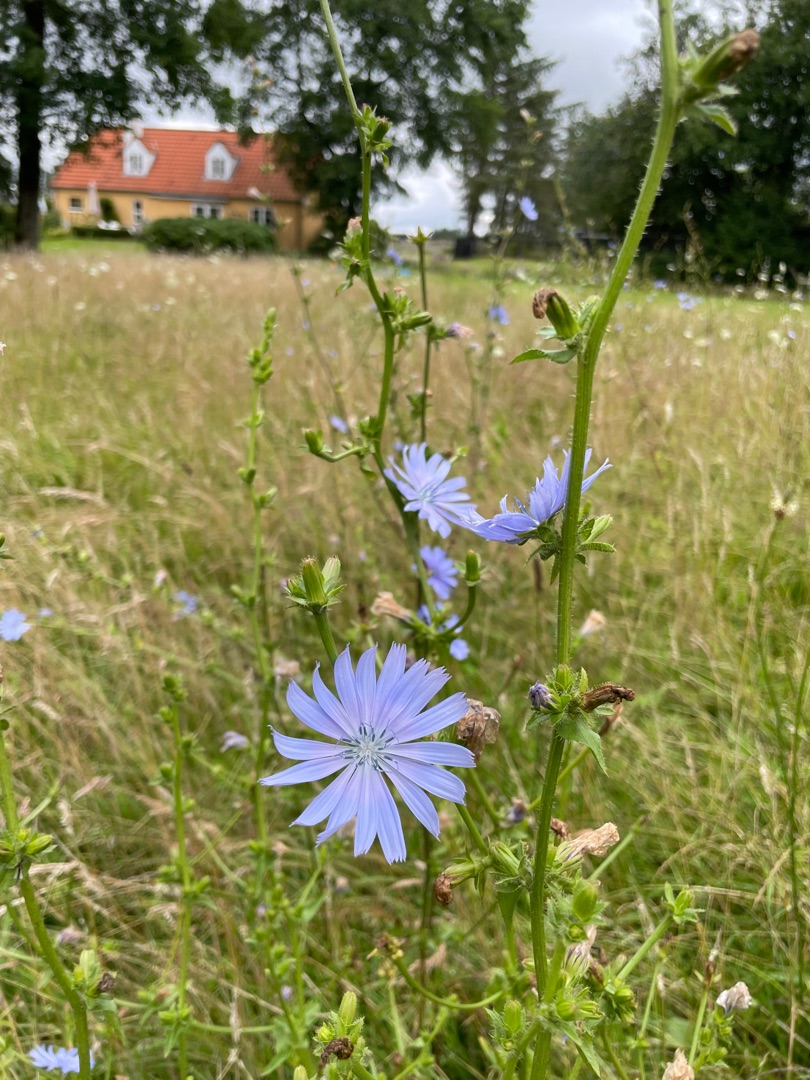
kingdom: Plantae
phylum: Tracheophyta
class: Magnoliopsida
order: Asterales
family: Asteraceae
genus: Cichorium
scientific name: Cichorium intybus
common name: Cikorie
